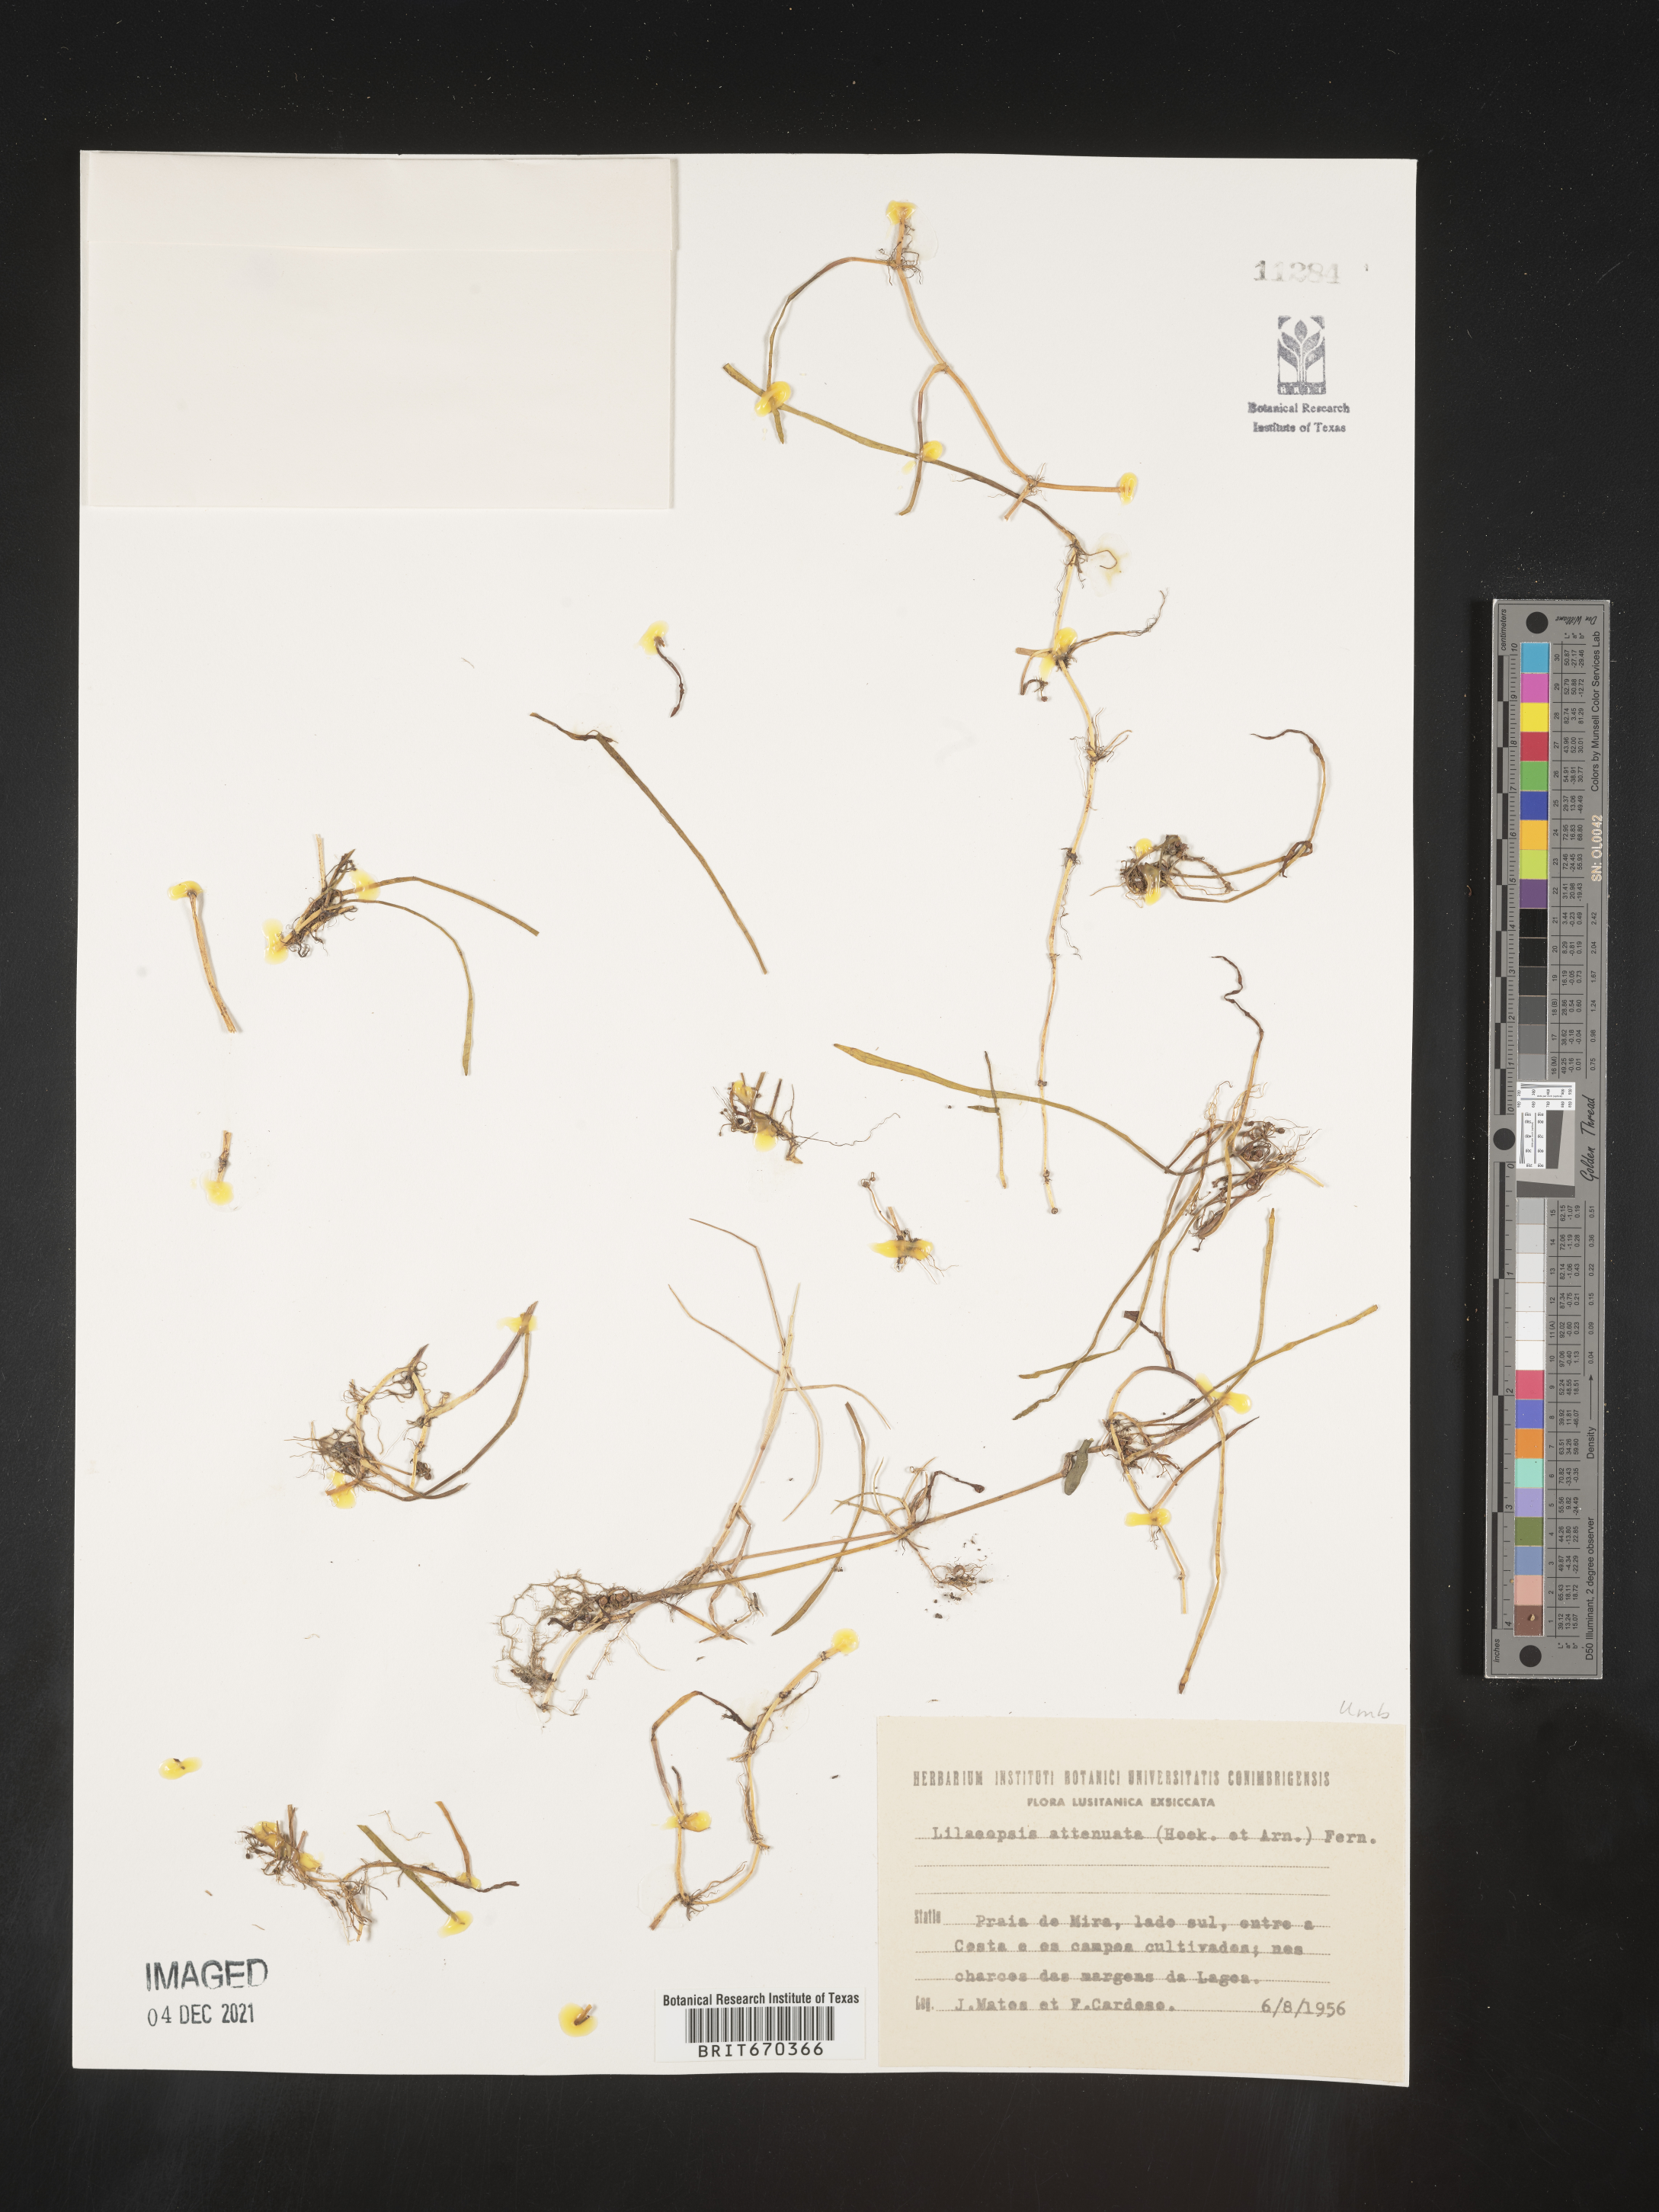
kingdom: Plantae
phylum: Tracheophyta
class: Magnoliopsida
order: Apiales
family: Apiaceae
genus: Lilaeopsis
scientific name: Lilaeopsis
